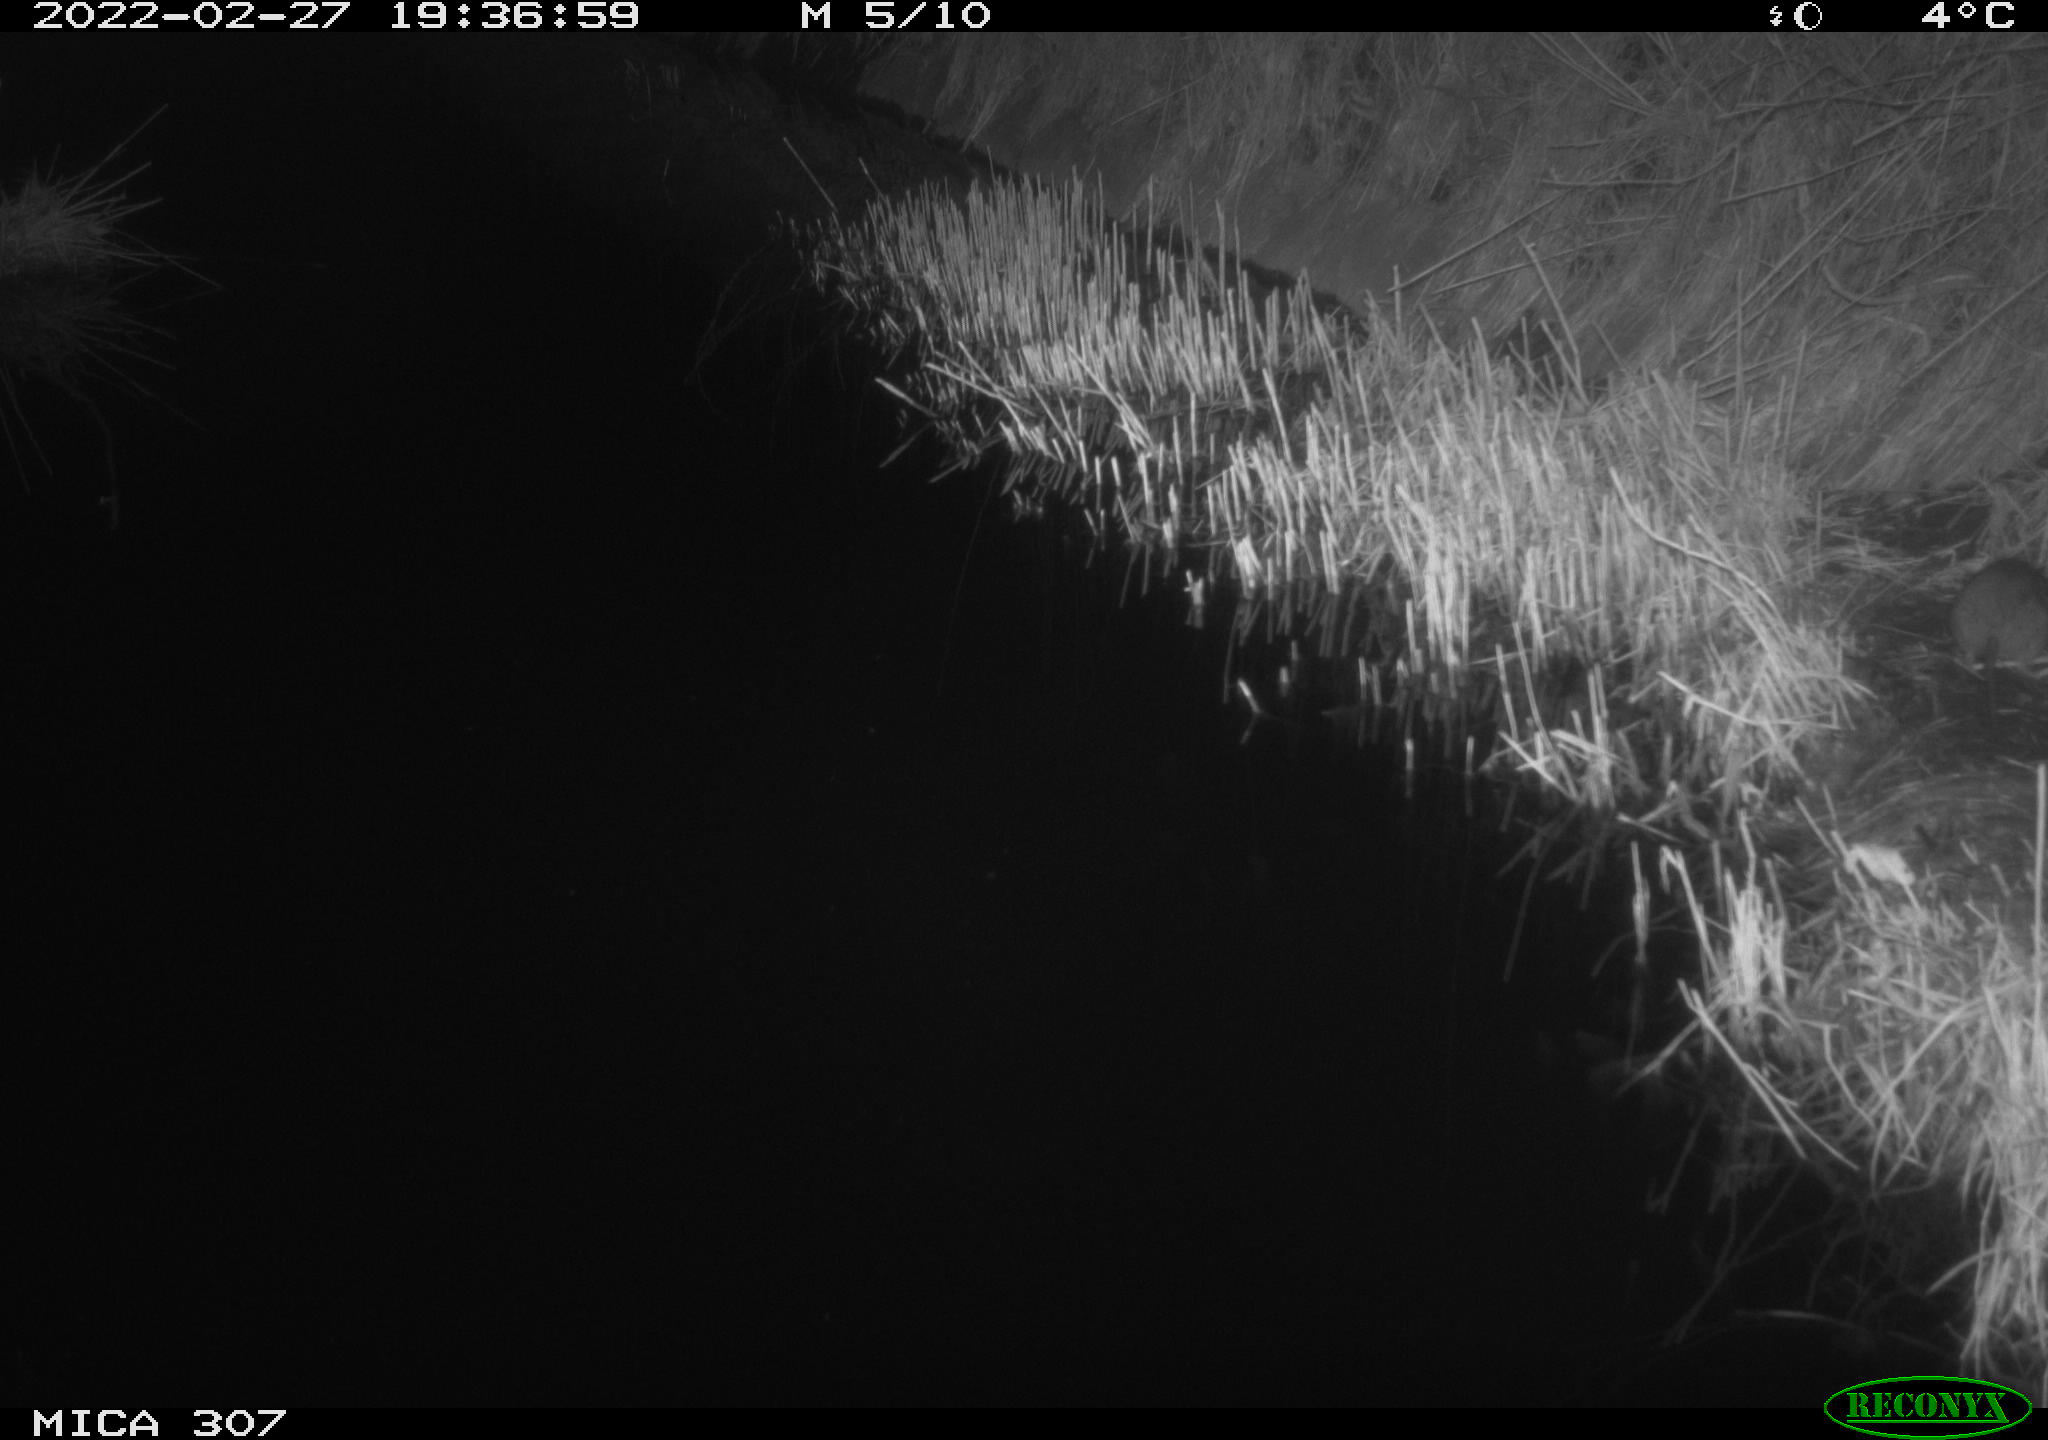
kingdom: Animalia
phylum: Chordata
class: Mammalia
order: Rodentia
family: Muridae
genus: Rattus
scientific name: Rattus norvegicus
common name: Brown rat
